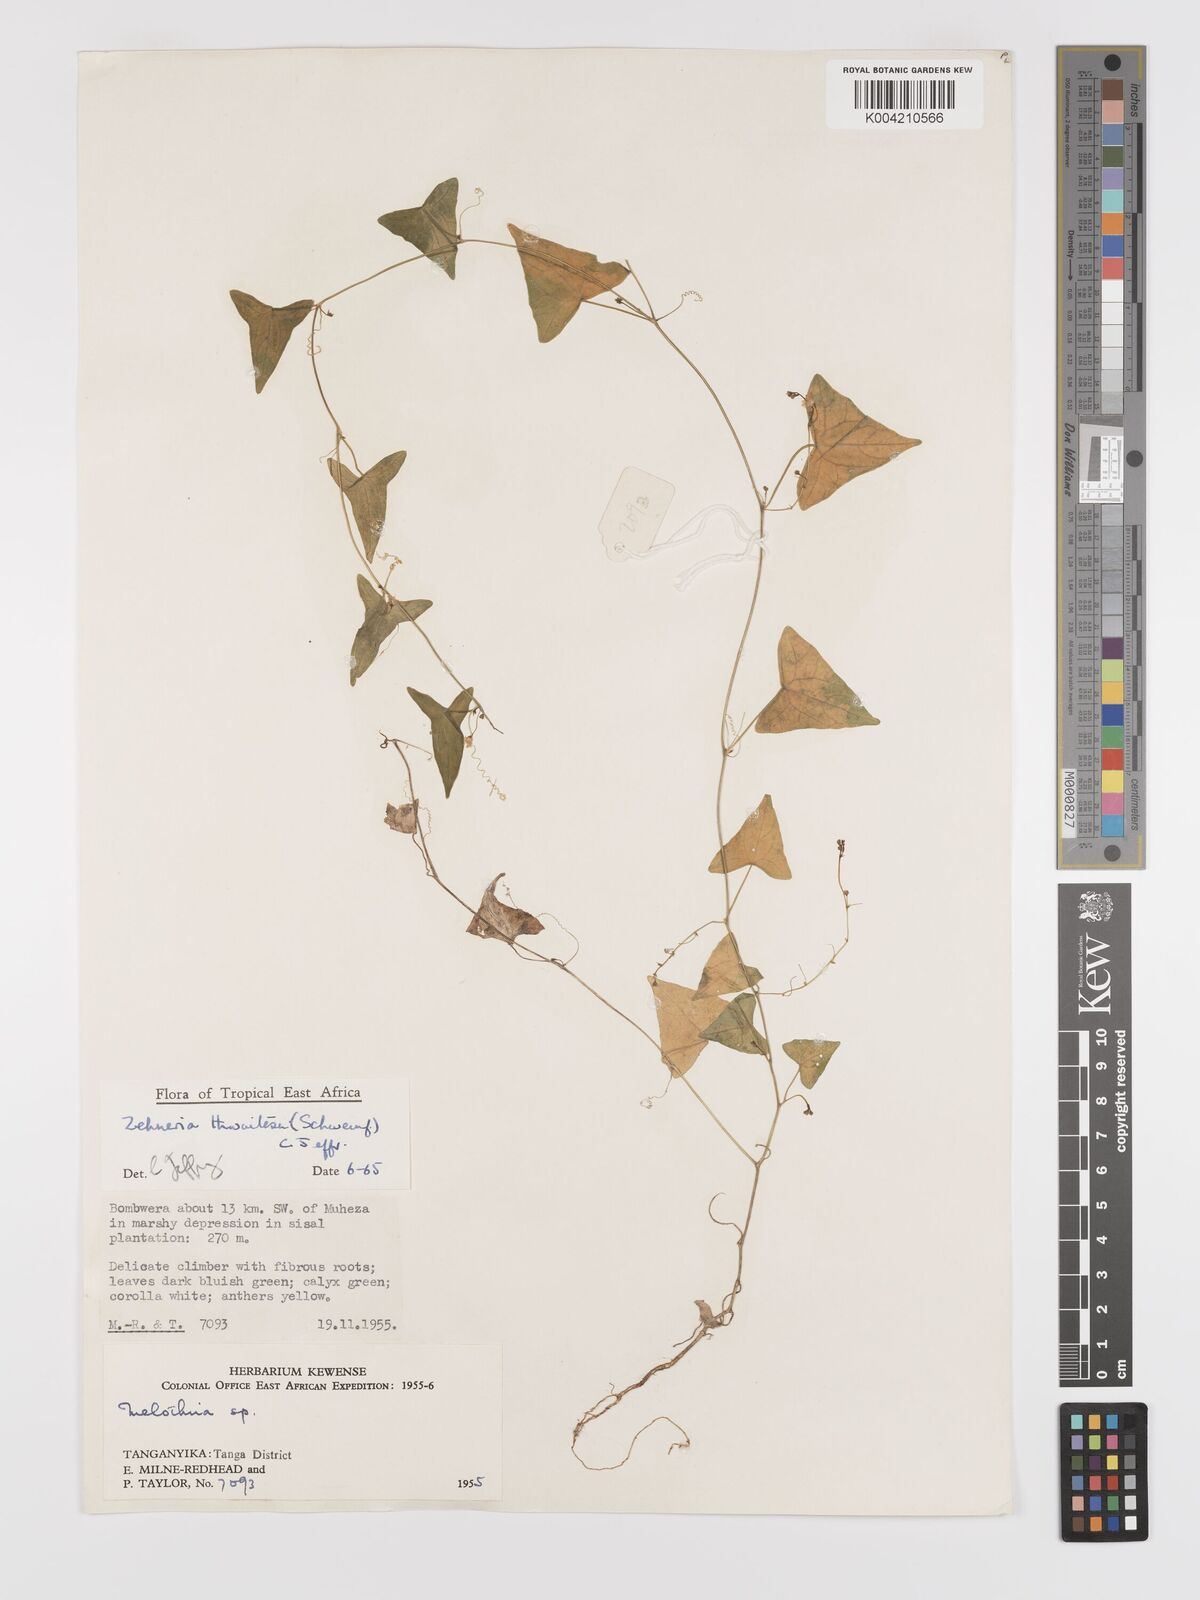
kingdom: Plantae
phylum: Tracheophyta
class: Magnoliopsida
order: Cucurbitales
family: Cucurbitaceae
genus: Zehneria
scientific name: Zehneria thwaitesii
